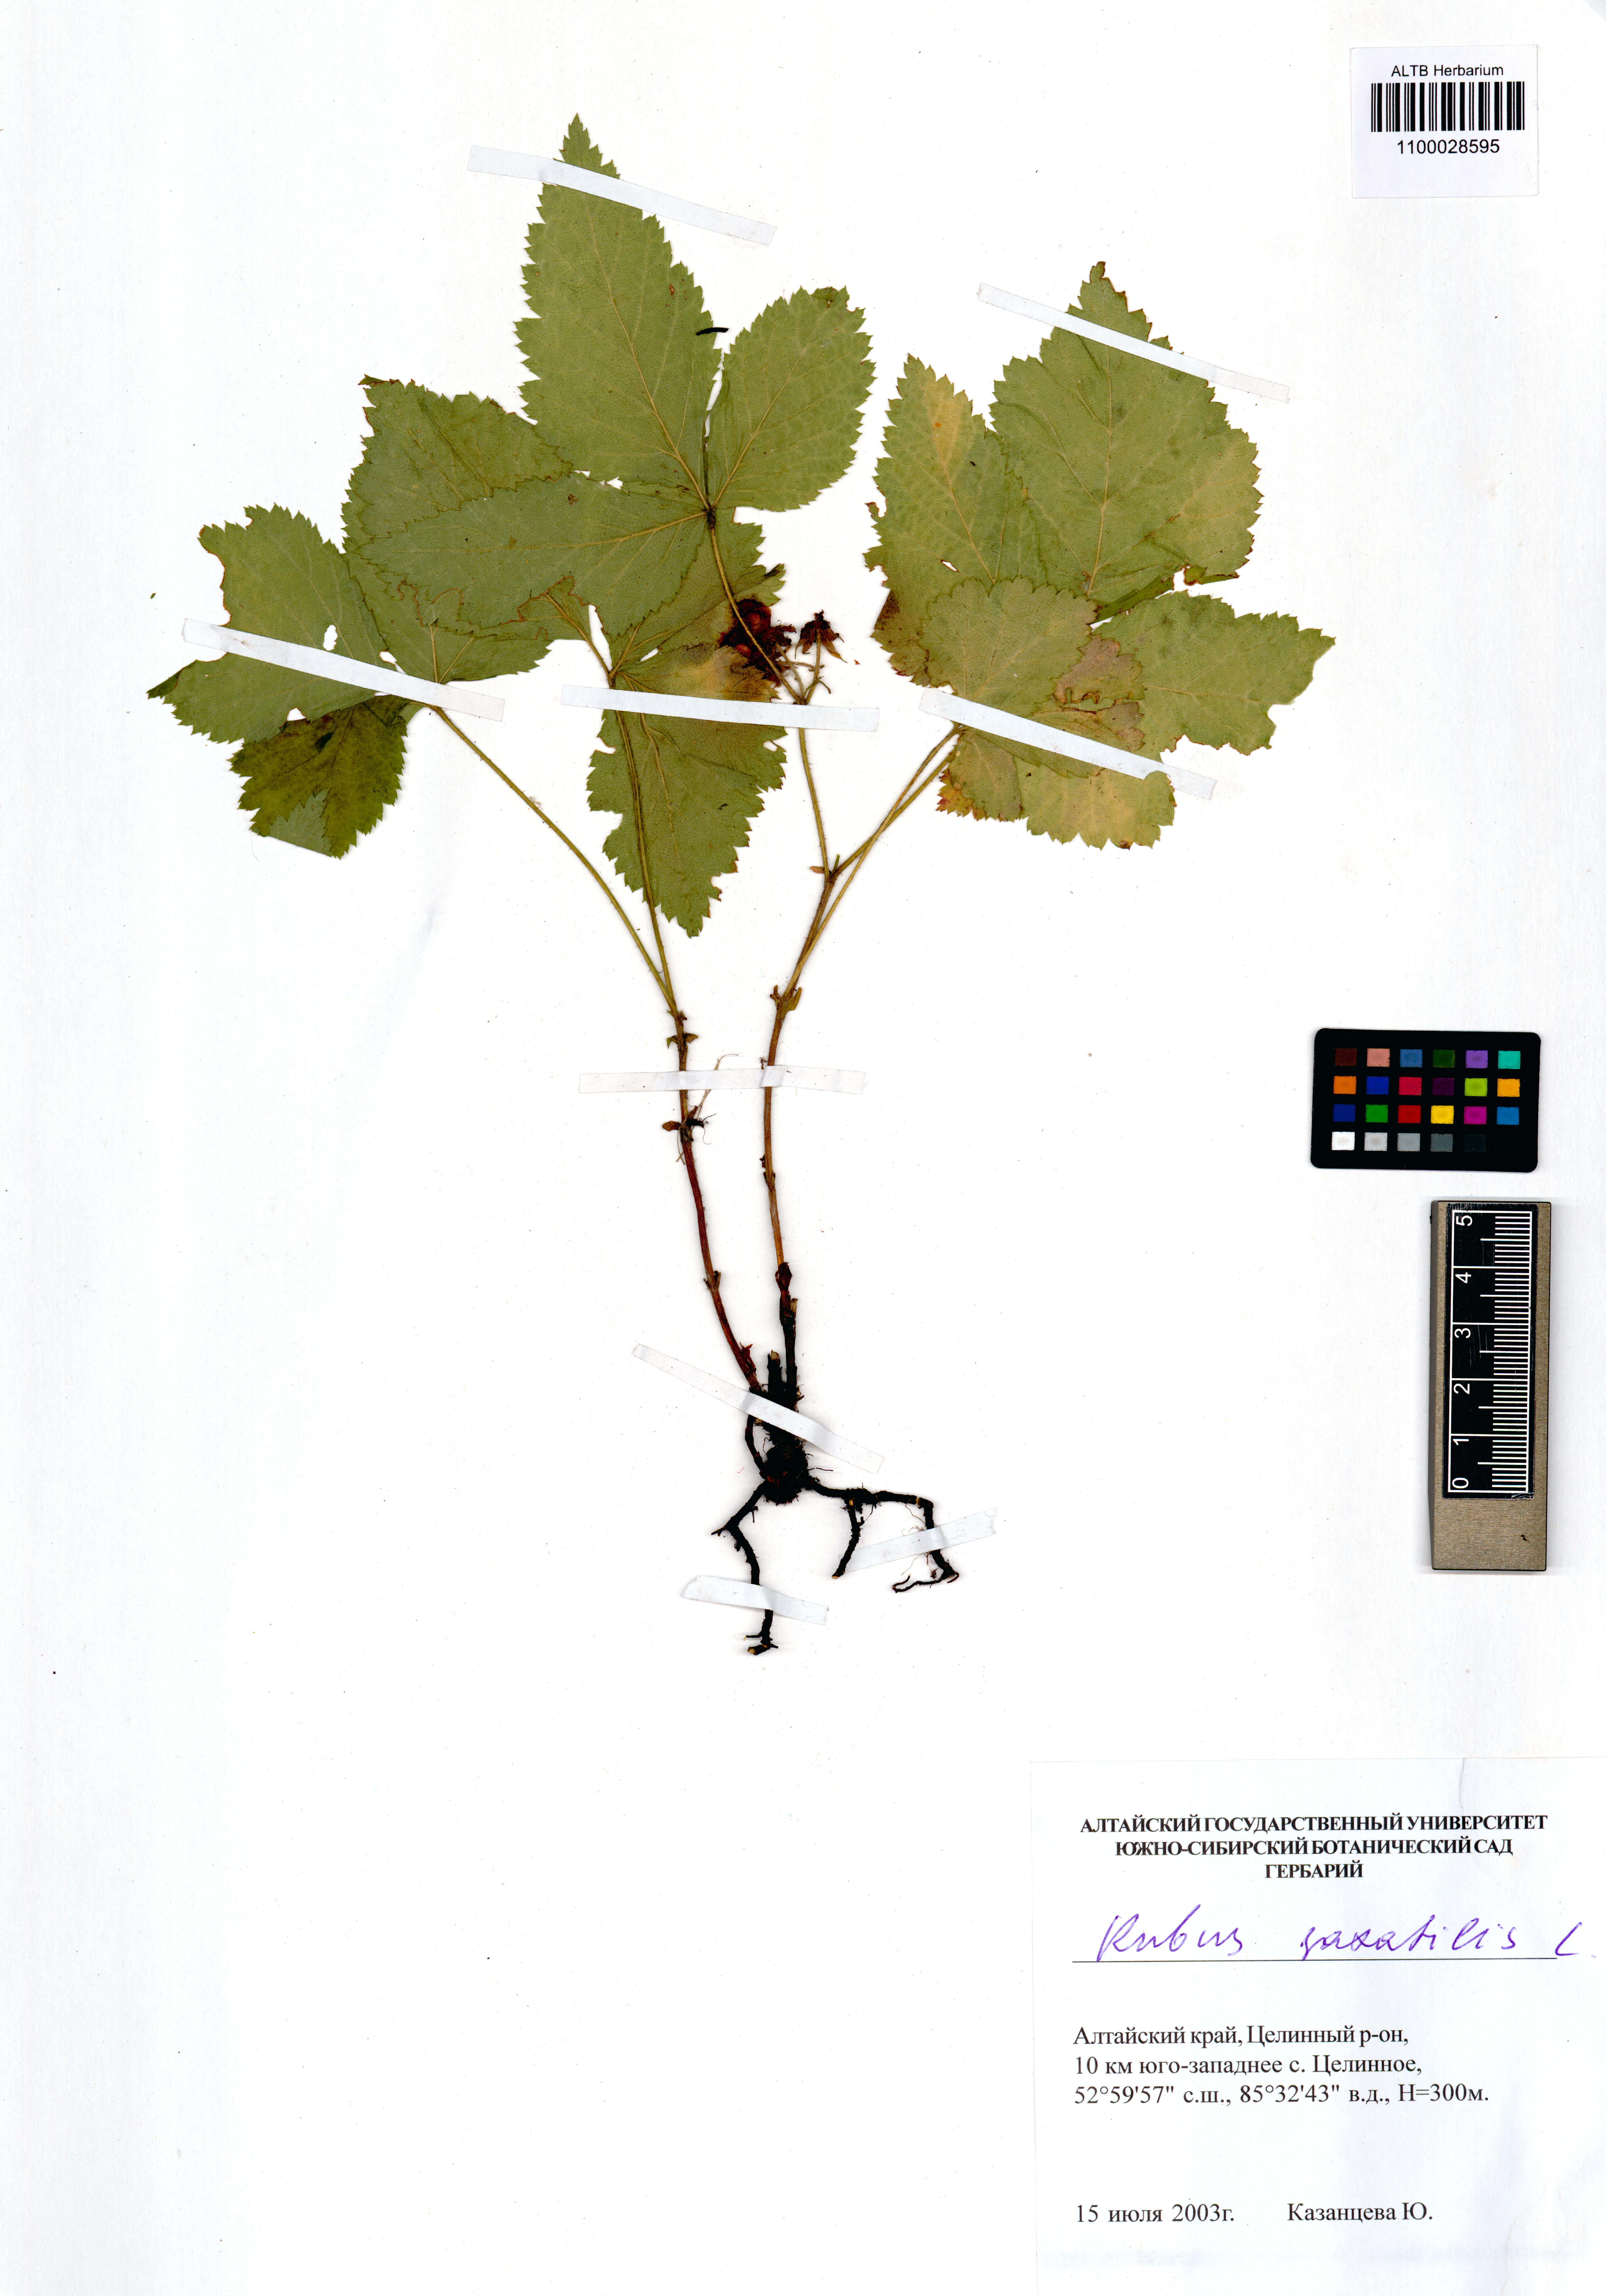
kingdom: Plantae
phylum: Tracheophyta
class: Magnoliopsida
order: Rosales
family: Rosaceae
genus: Rubus
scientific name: Rubus saxatilis
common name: Stone bramble
